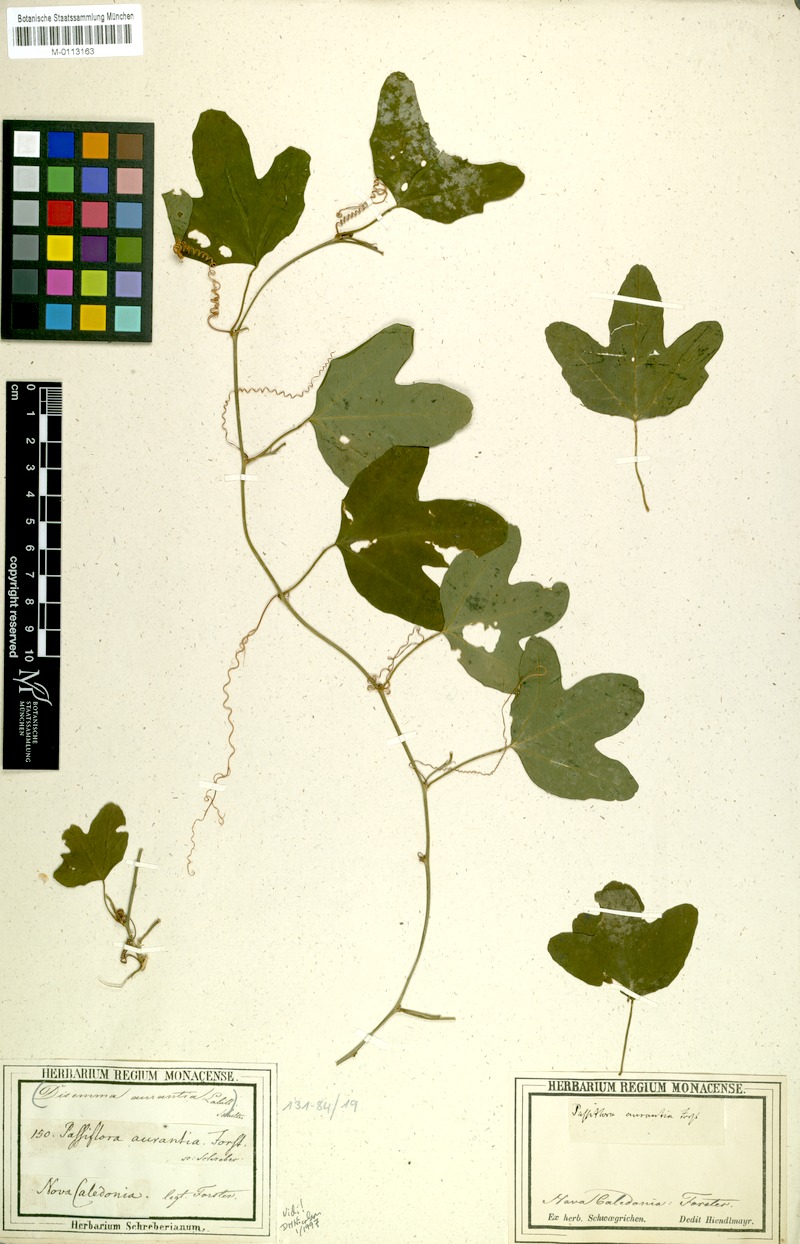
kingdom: Plantae
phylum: Tracheophyta
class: Magnoliopsida
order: Malpighiales
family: Passifloraceae
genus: Passiflora
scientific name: Passiflora aurantia
